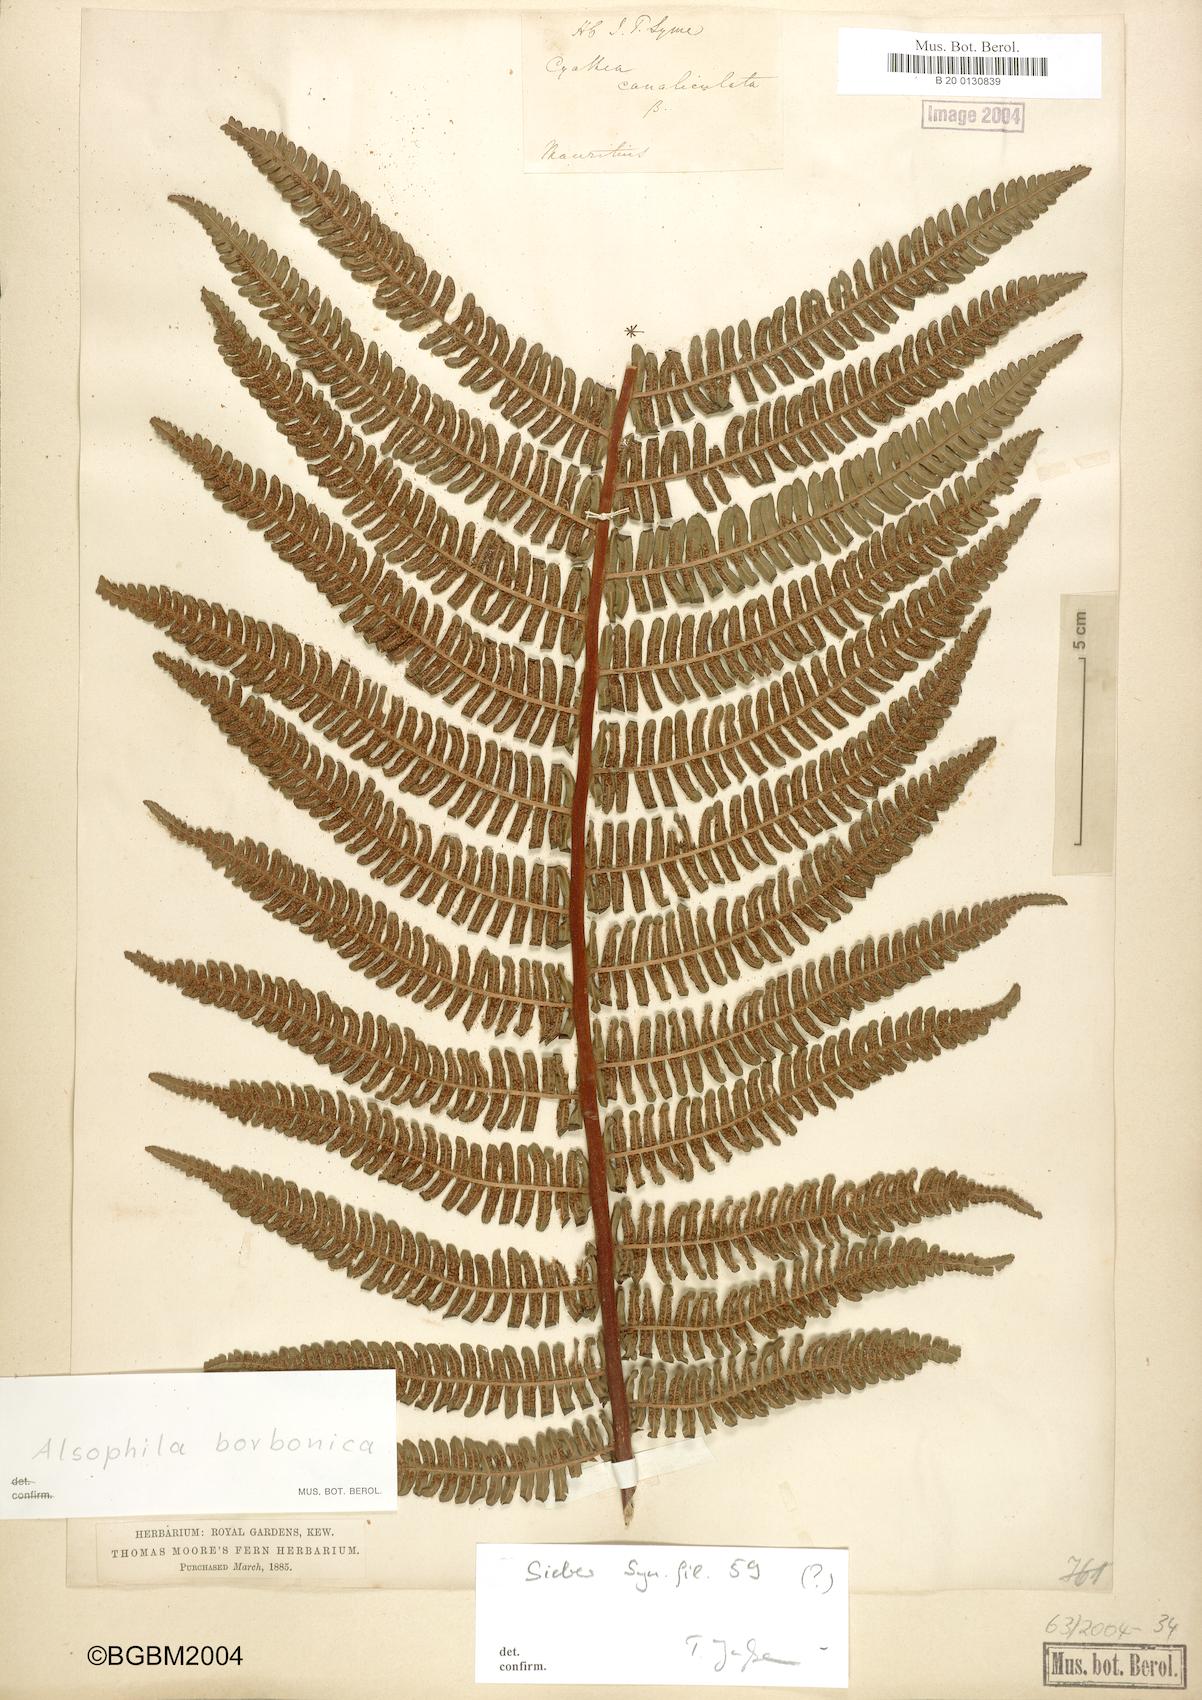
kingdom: Plantae
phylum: Tracheophyta
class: Polypodiopsida
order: Cyatheales
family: Cyatheaceae
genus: Alsophila
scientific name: Alsophila borbonica
